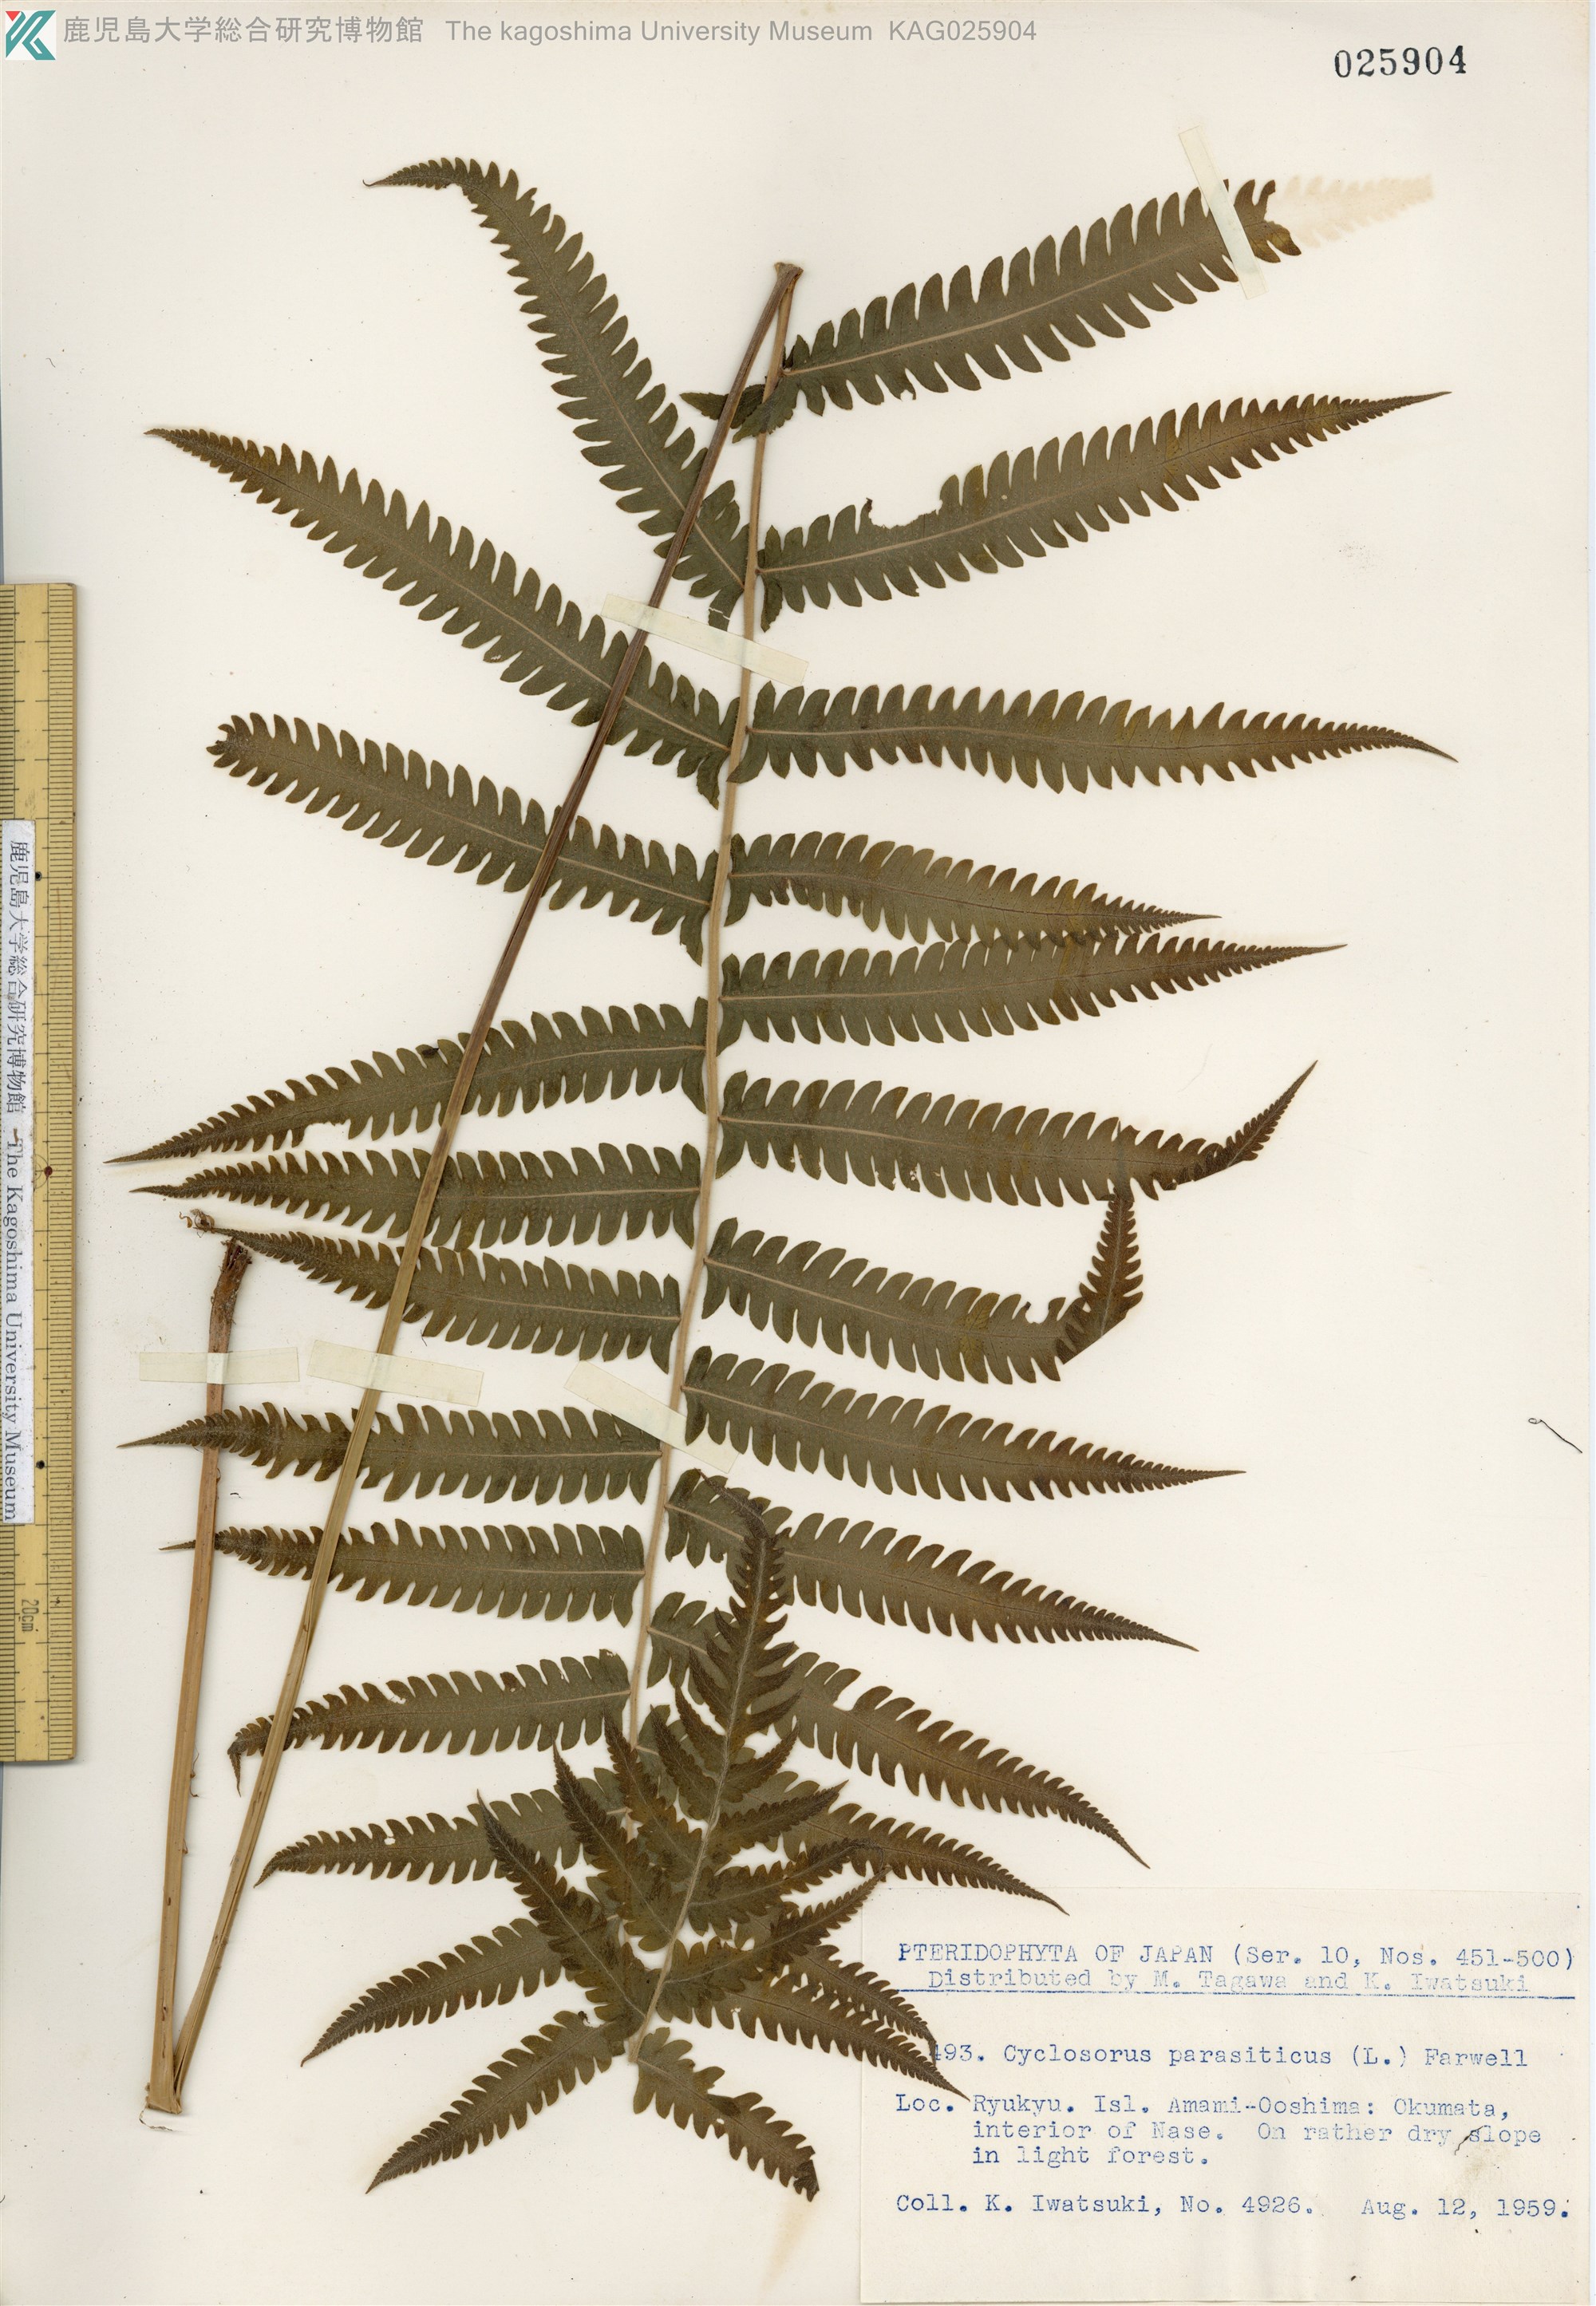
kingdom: Plantae
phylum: Tracheophyta
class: Polypodiopsida
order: Polypodiales
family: Thelypteridaceae
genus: Christella
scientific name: Christella parasitica
